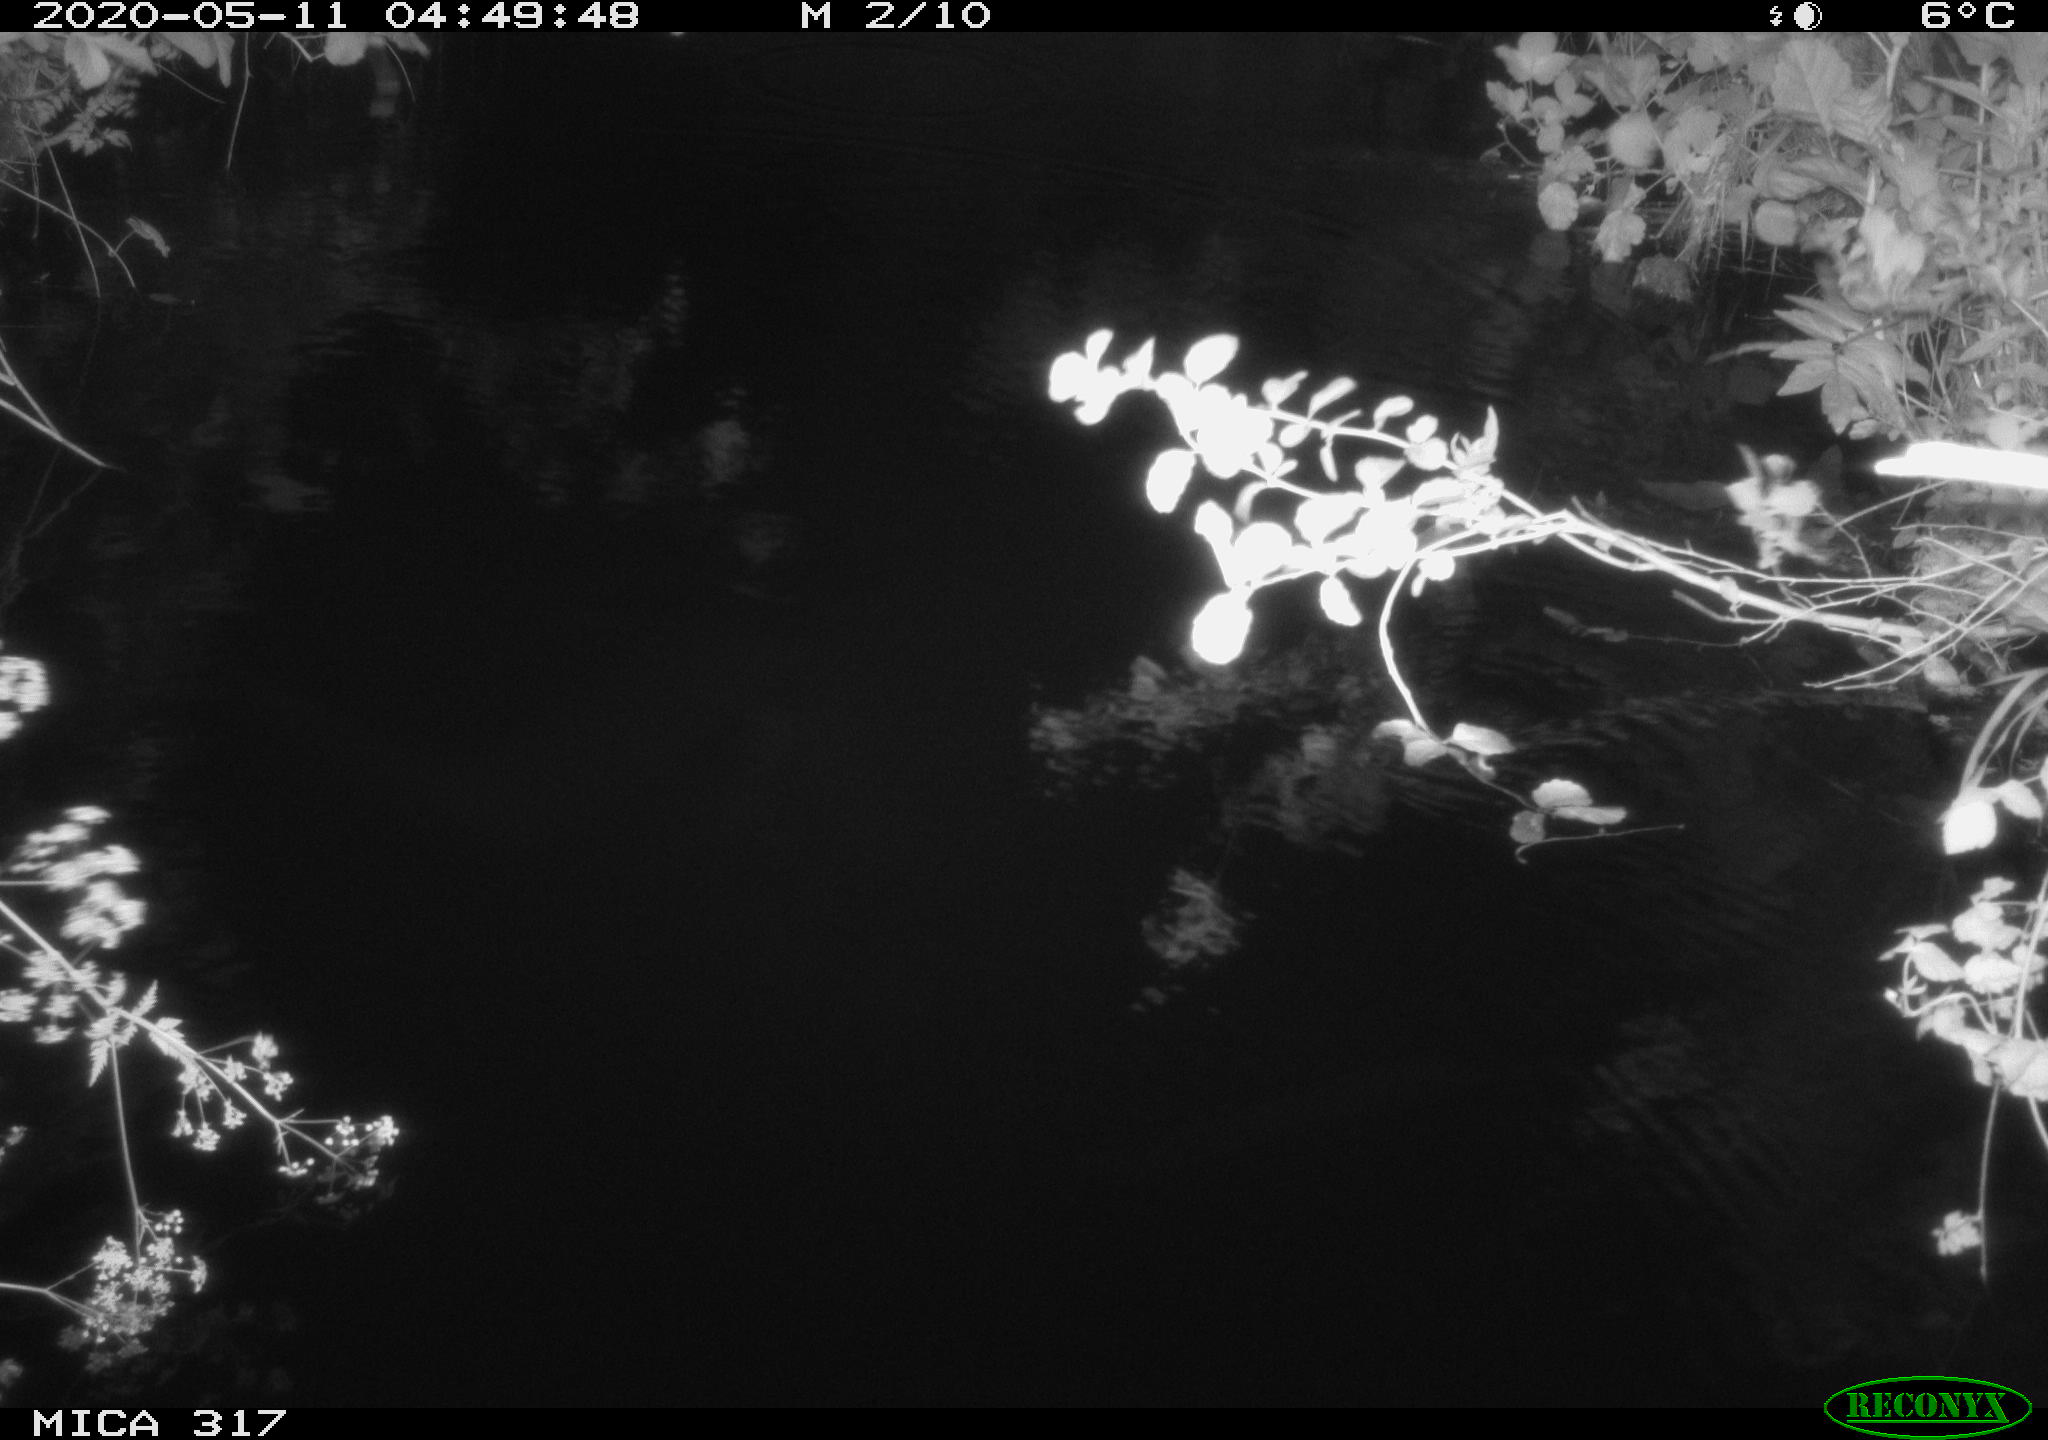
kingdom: Animalia
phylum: Chordata
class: Aves
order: Anseriformes
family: Anatidae
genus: Anas
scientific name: Anas platyrhynchos
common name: Mallard
